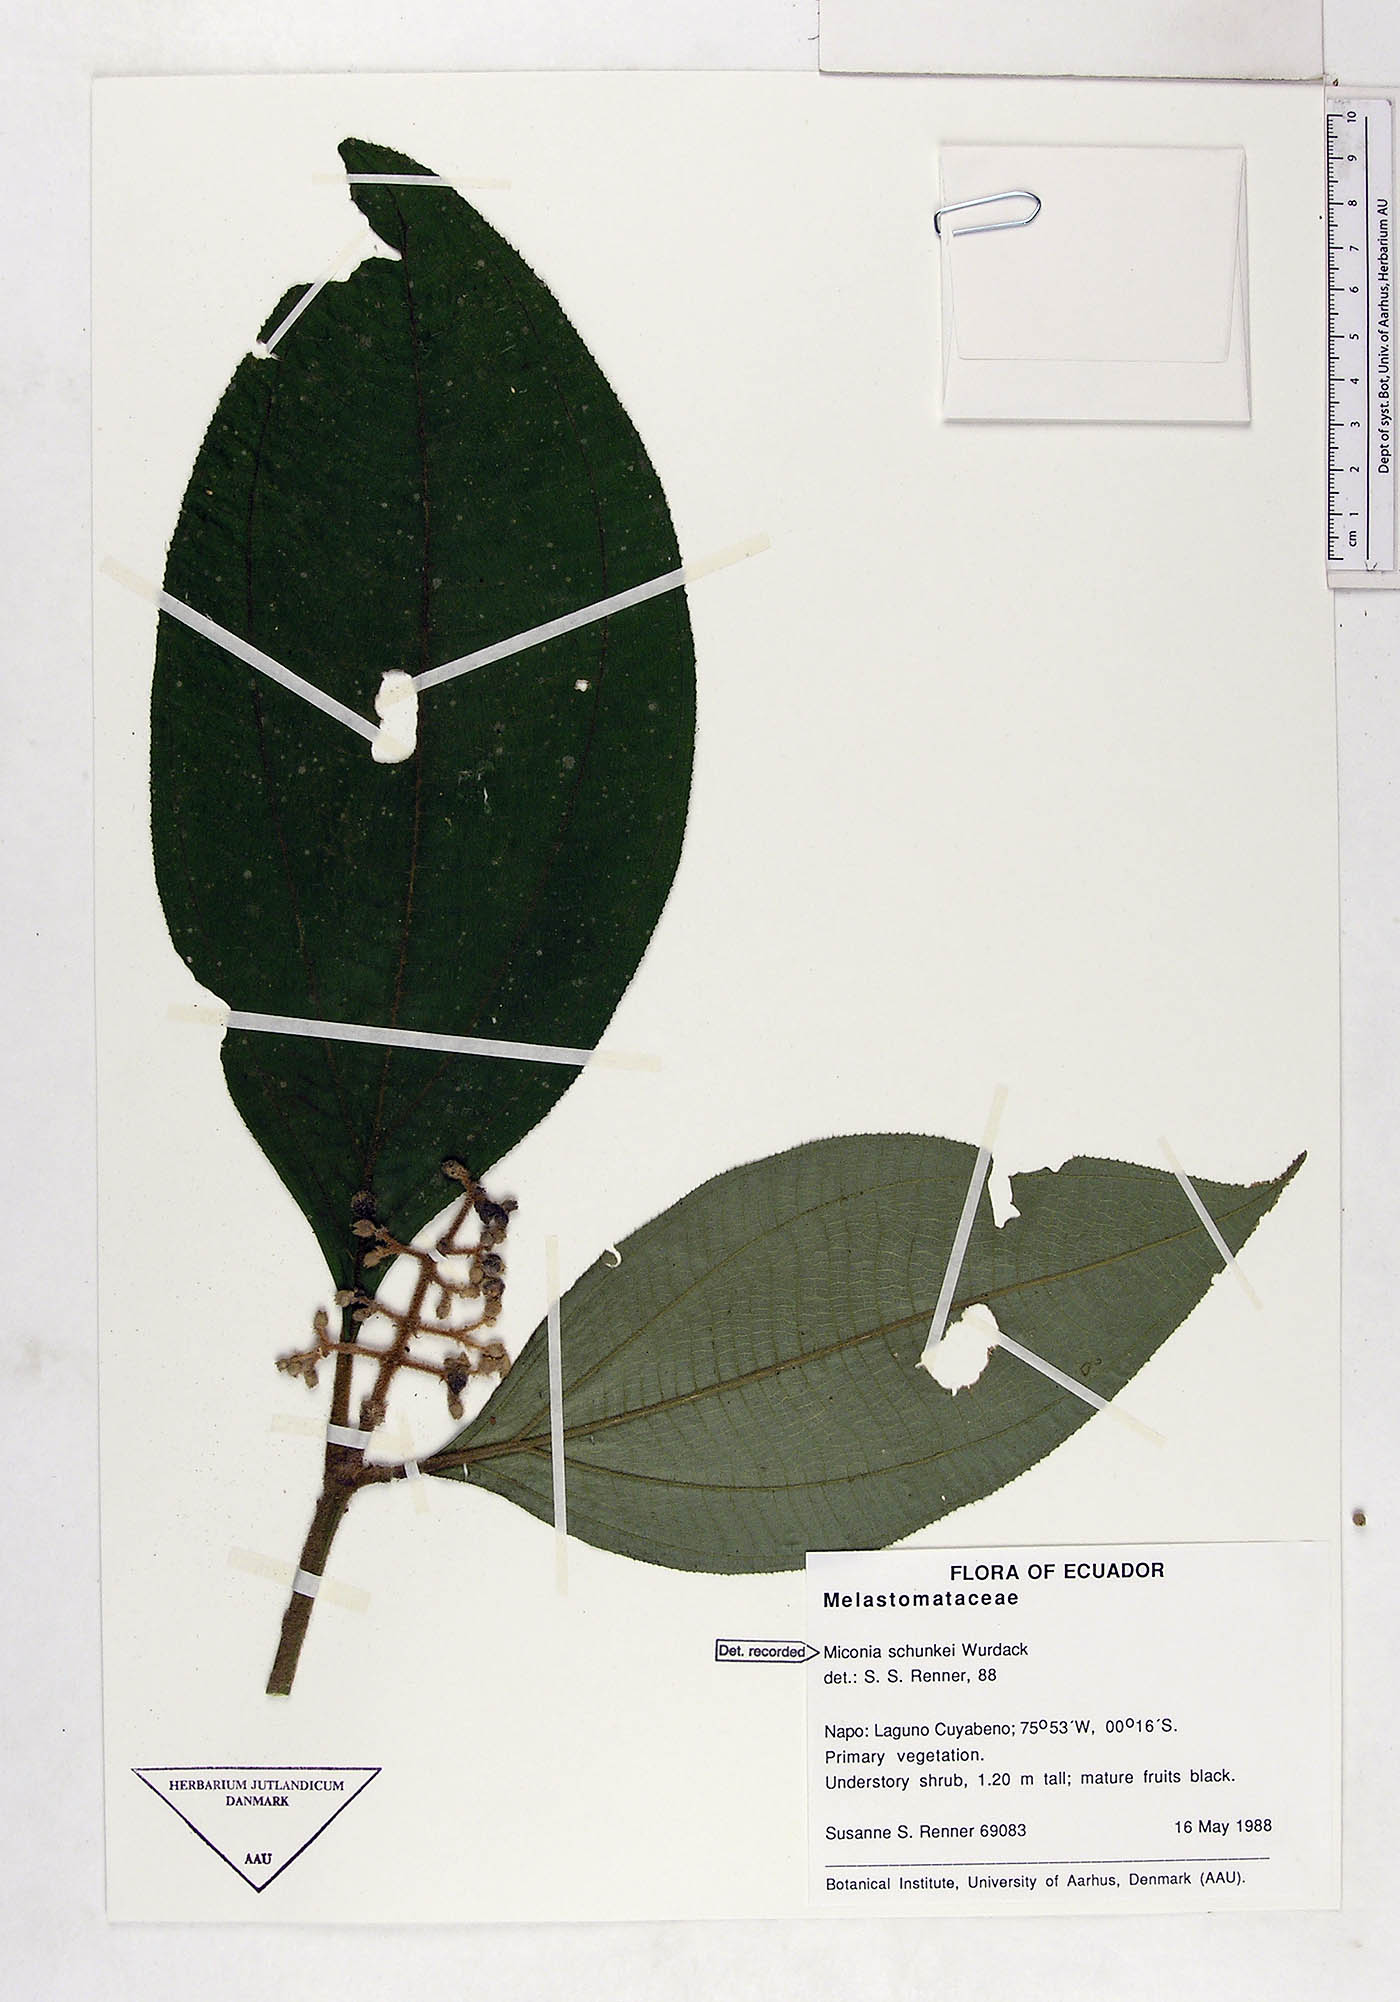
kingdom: Plantae
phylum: Tracheophyta
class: Magnoliopsida
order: Myrtales
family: Melastomataceae
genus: Miconia
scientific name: Miconia schunkei
